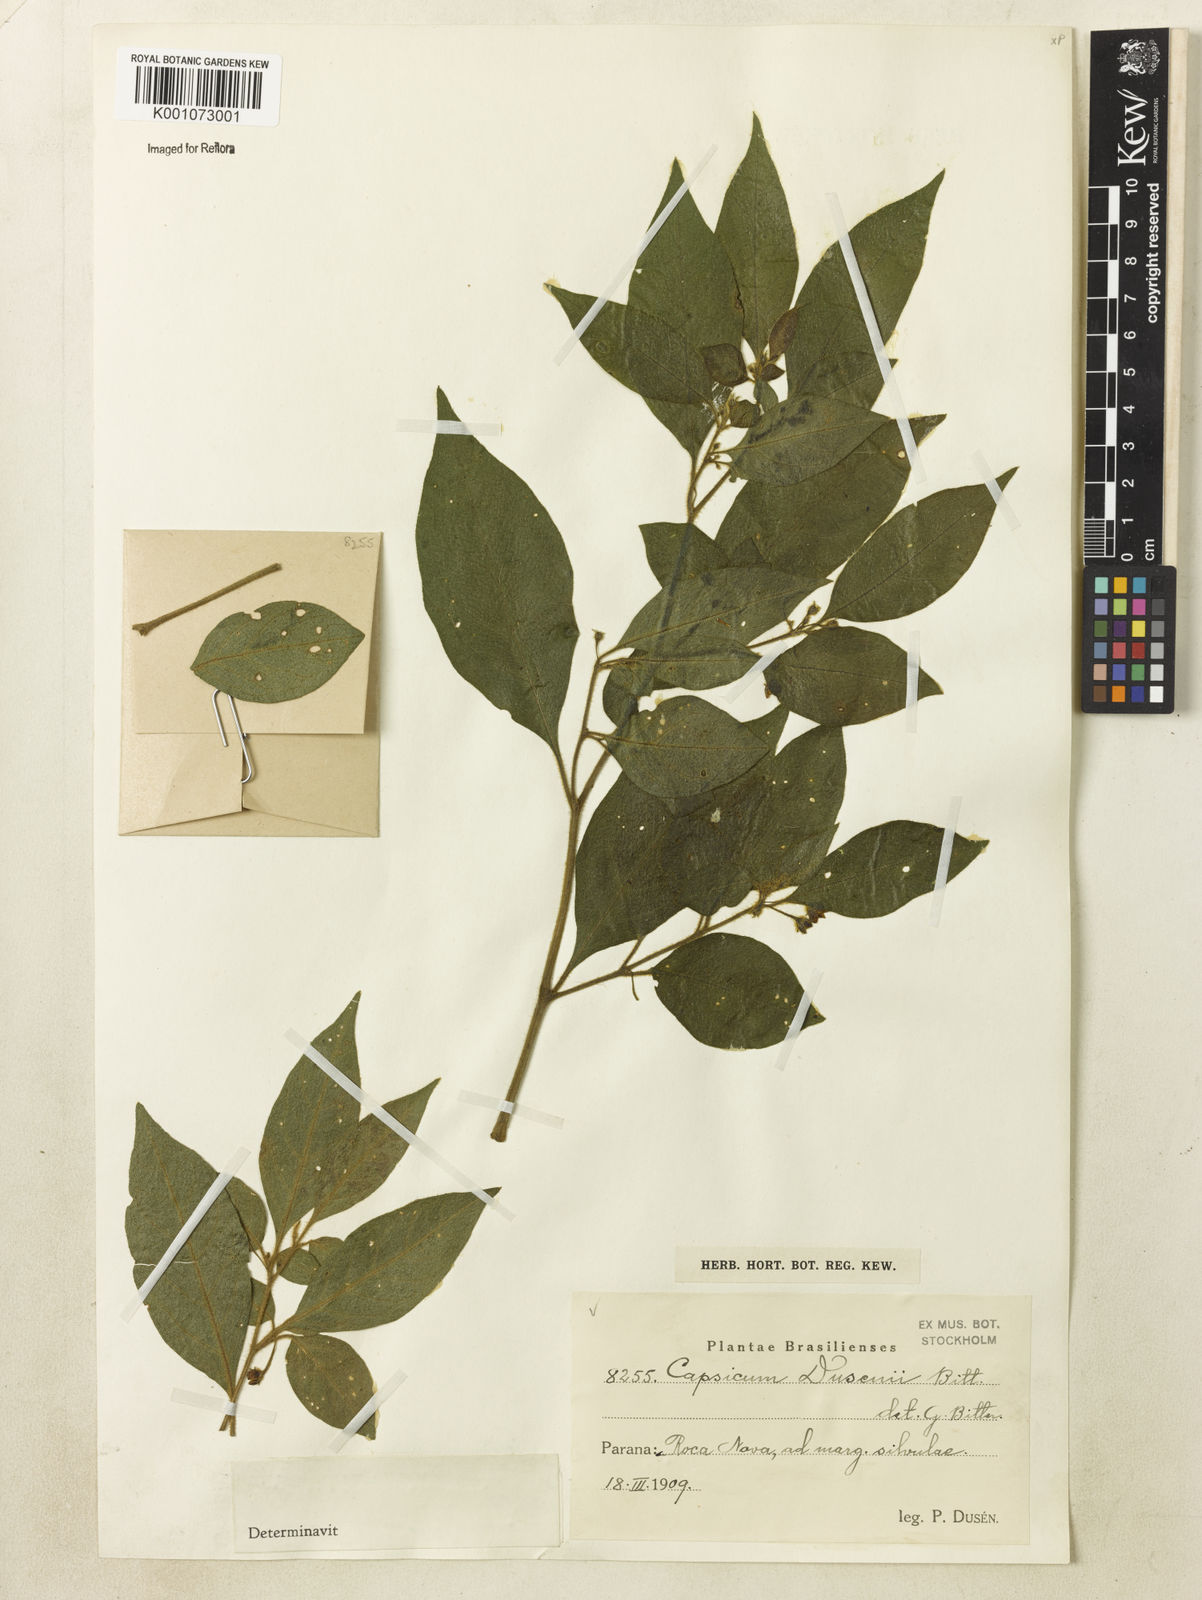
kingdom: Plantae
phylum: Tracheophyta
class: Magnoliopsida
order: Solanales
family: Solanaceae
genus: Capsicum
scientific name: Capsicum cornutum
